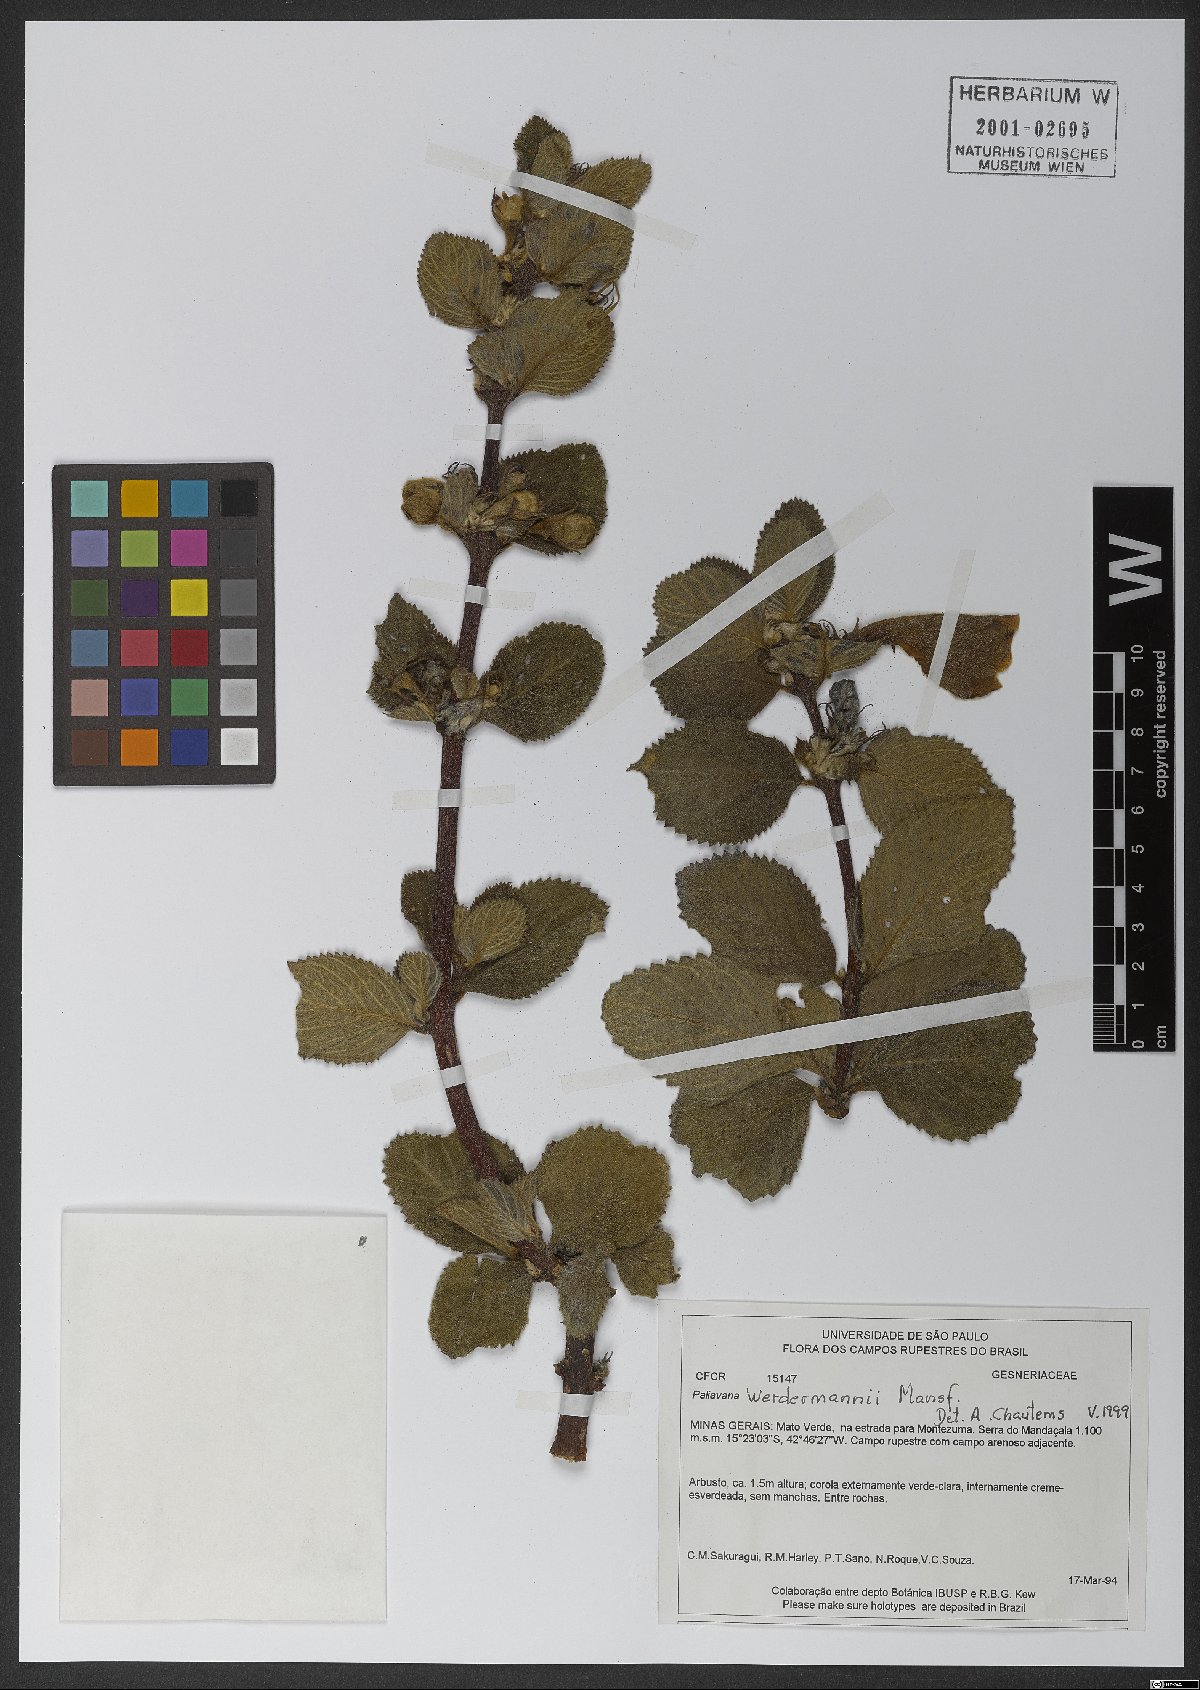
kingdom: Plantae
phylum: Tracheophyta
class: Magnoliopsida
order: Lamiales
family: Gesneriaceae
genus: Paliavana
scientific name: Paliavana werdermannii
